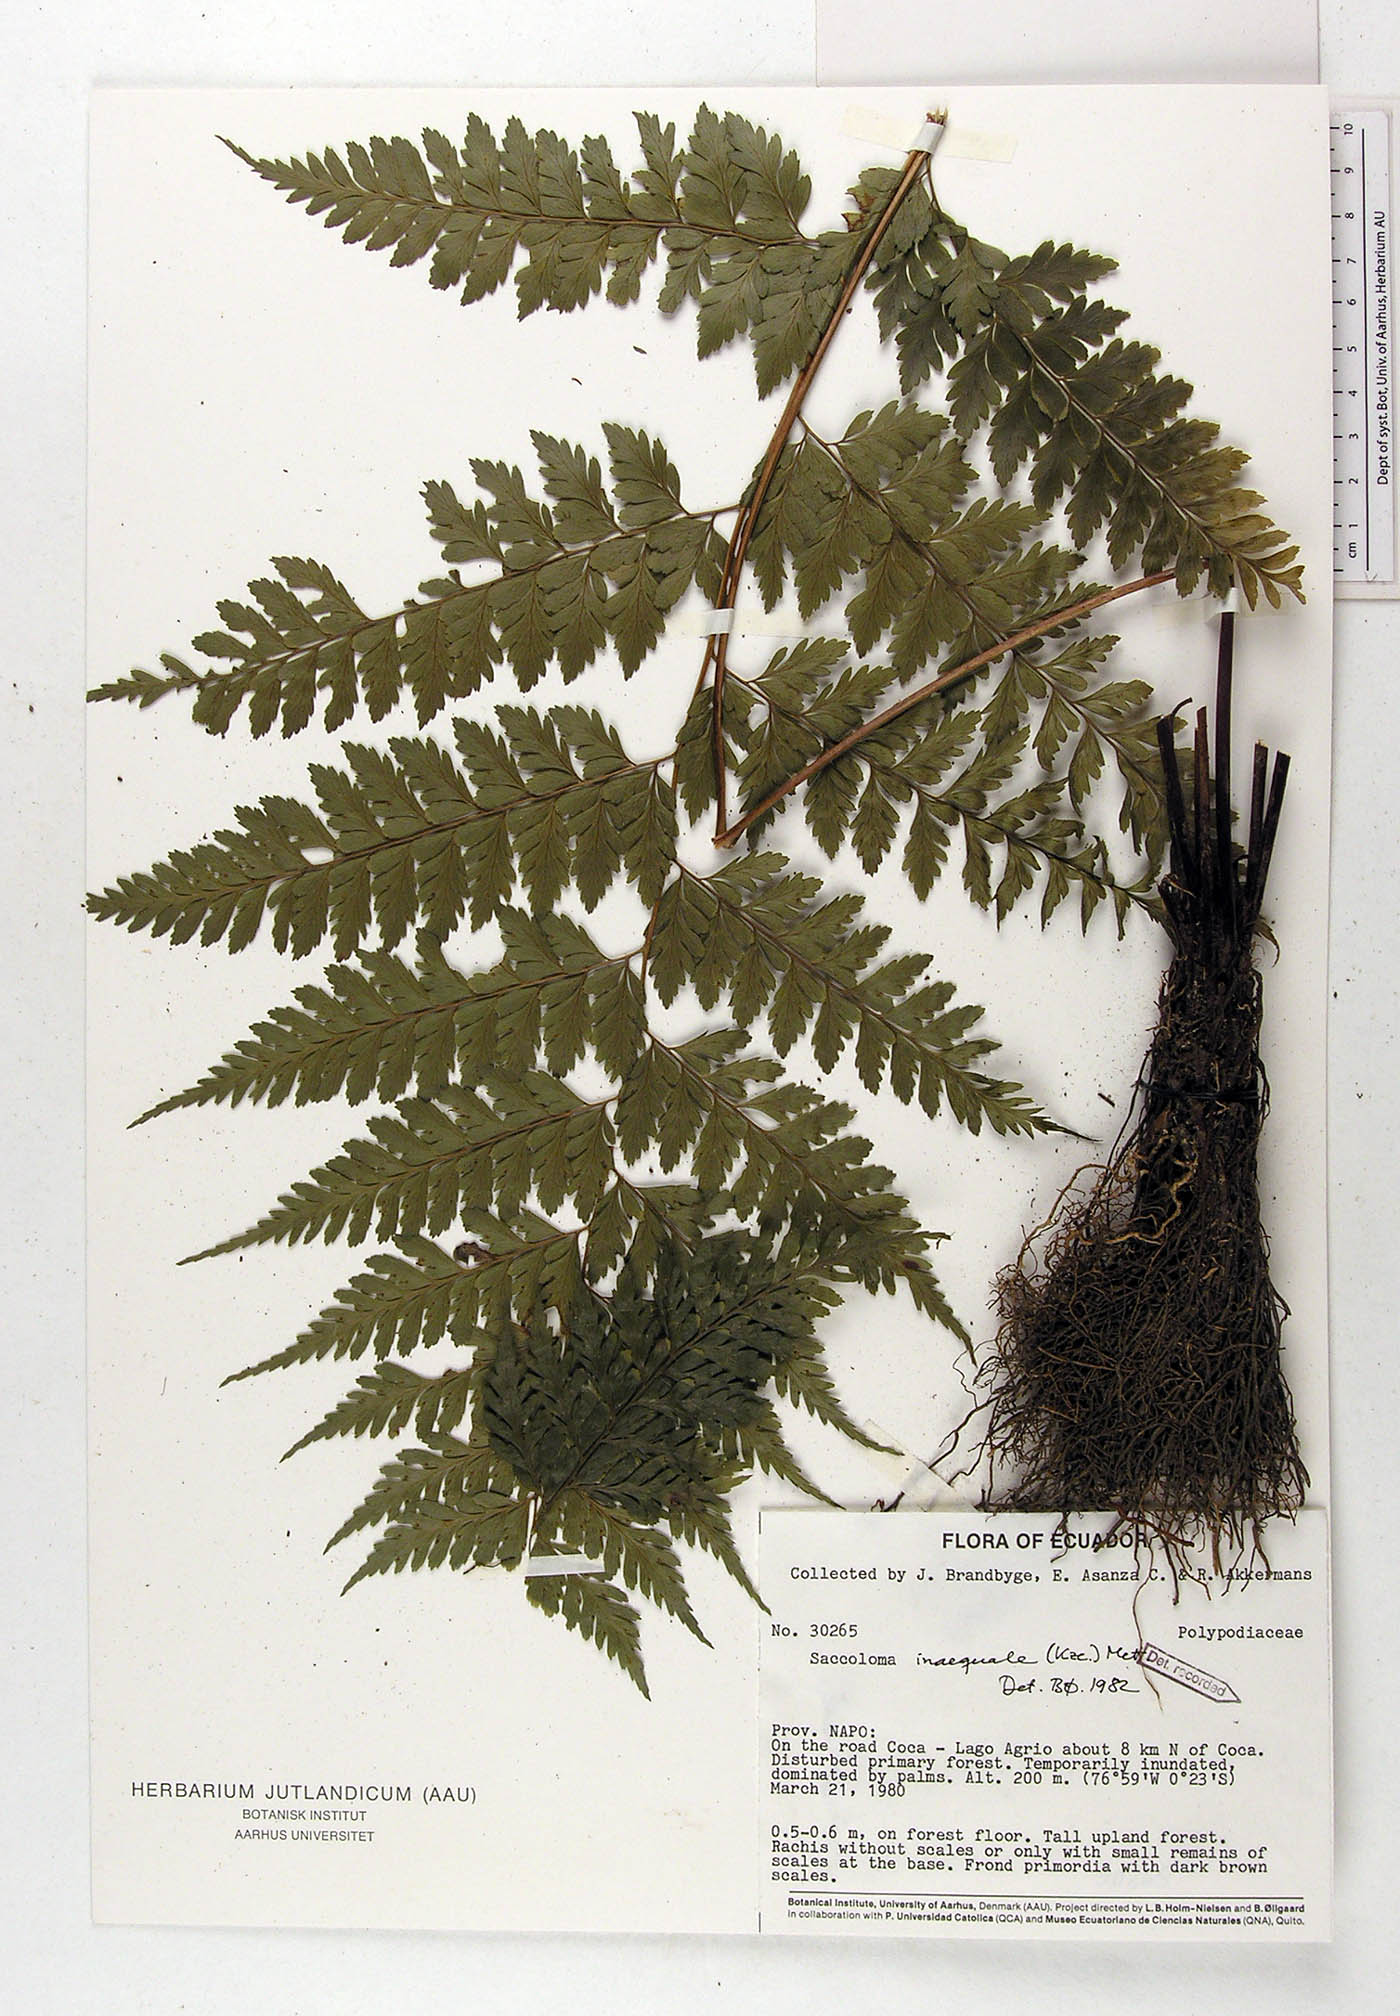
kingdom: Plantae
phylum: Tracheophyta
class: Polypodiopsida
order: Polypodiales
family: Saccolomataceae
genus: Saccoloma
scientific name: Saccoloma inaequale
